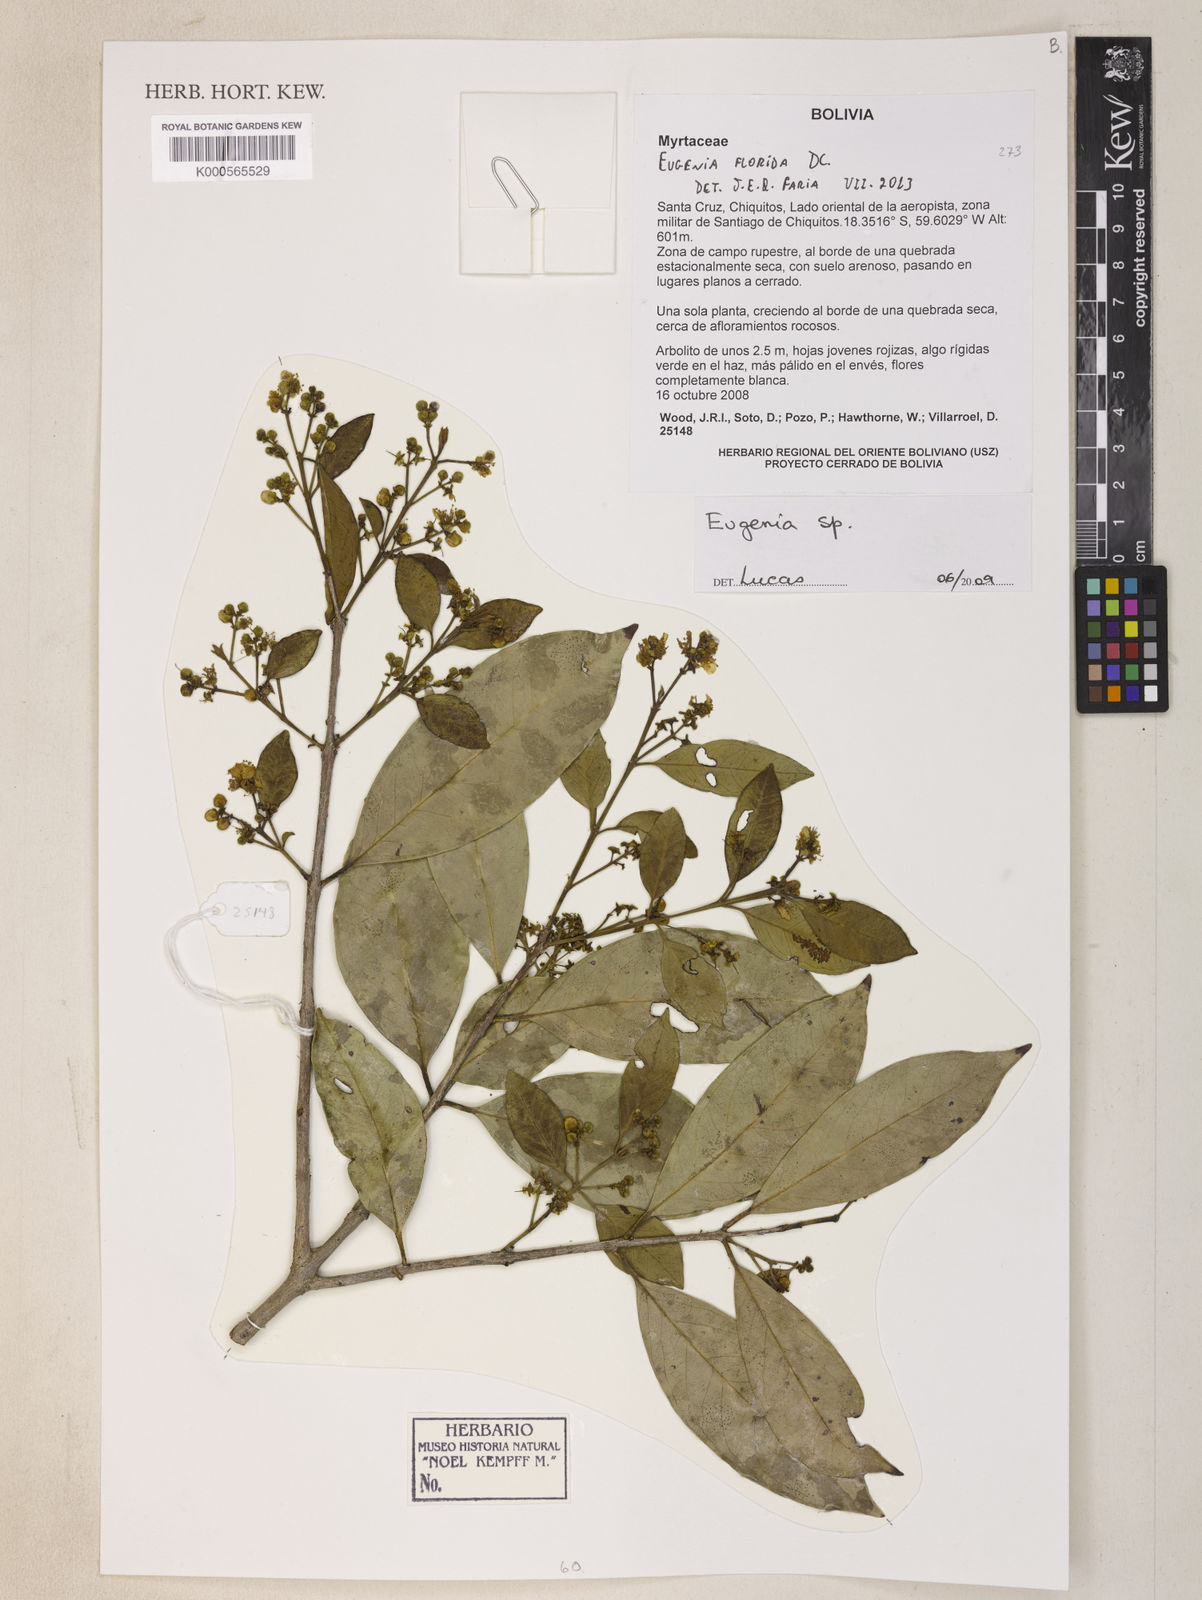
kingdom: Plantae
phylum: Tracheophyta
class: Magnoliopsida
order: Myrtales
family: Myrtaceae
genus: Eugenia
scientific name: Eugenia florida
